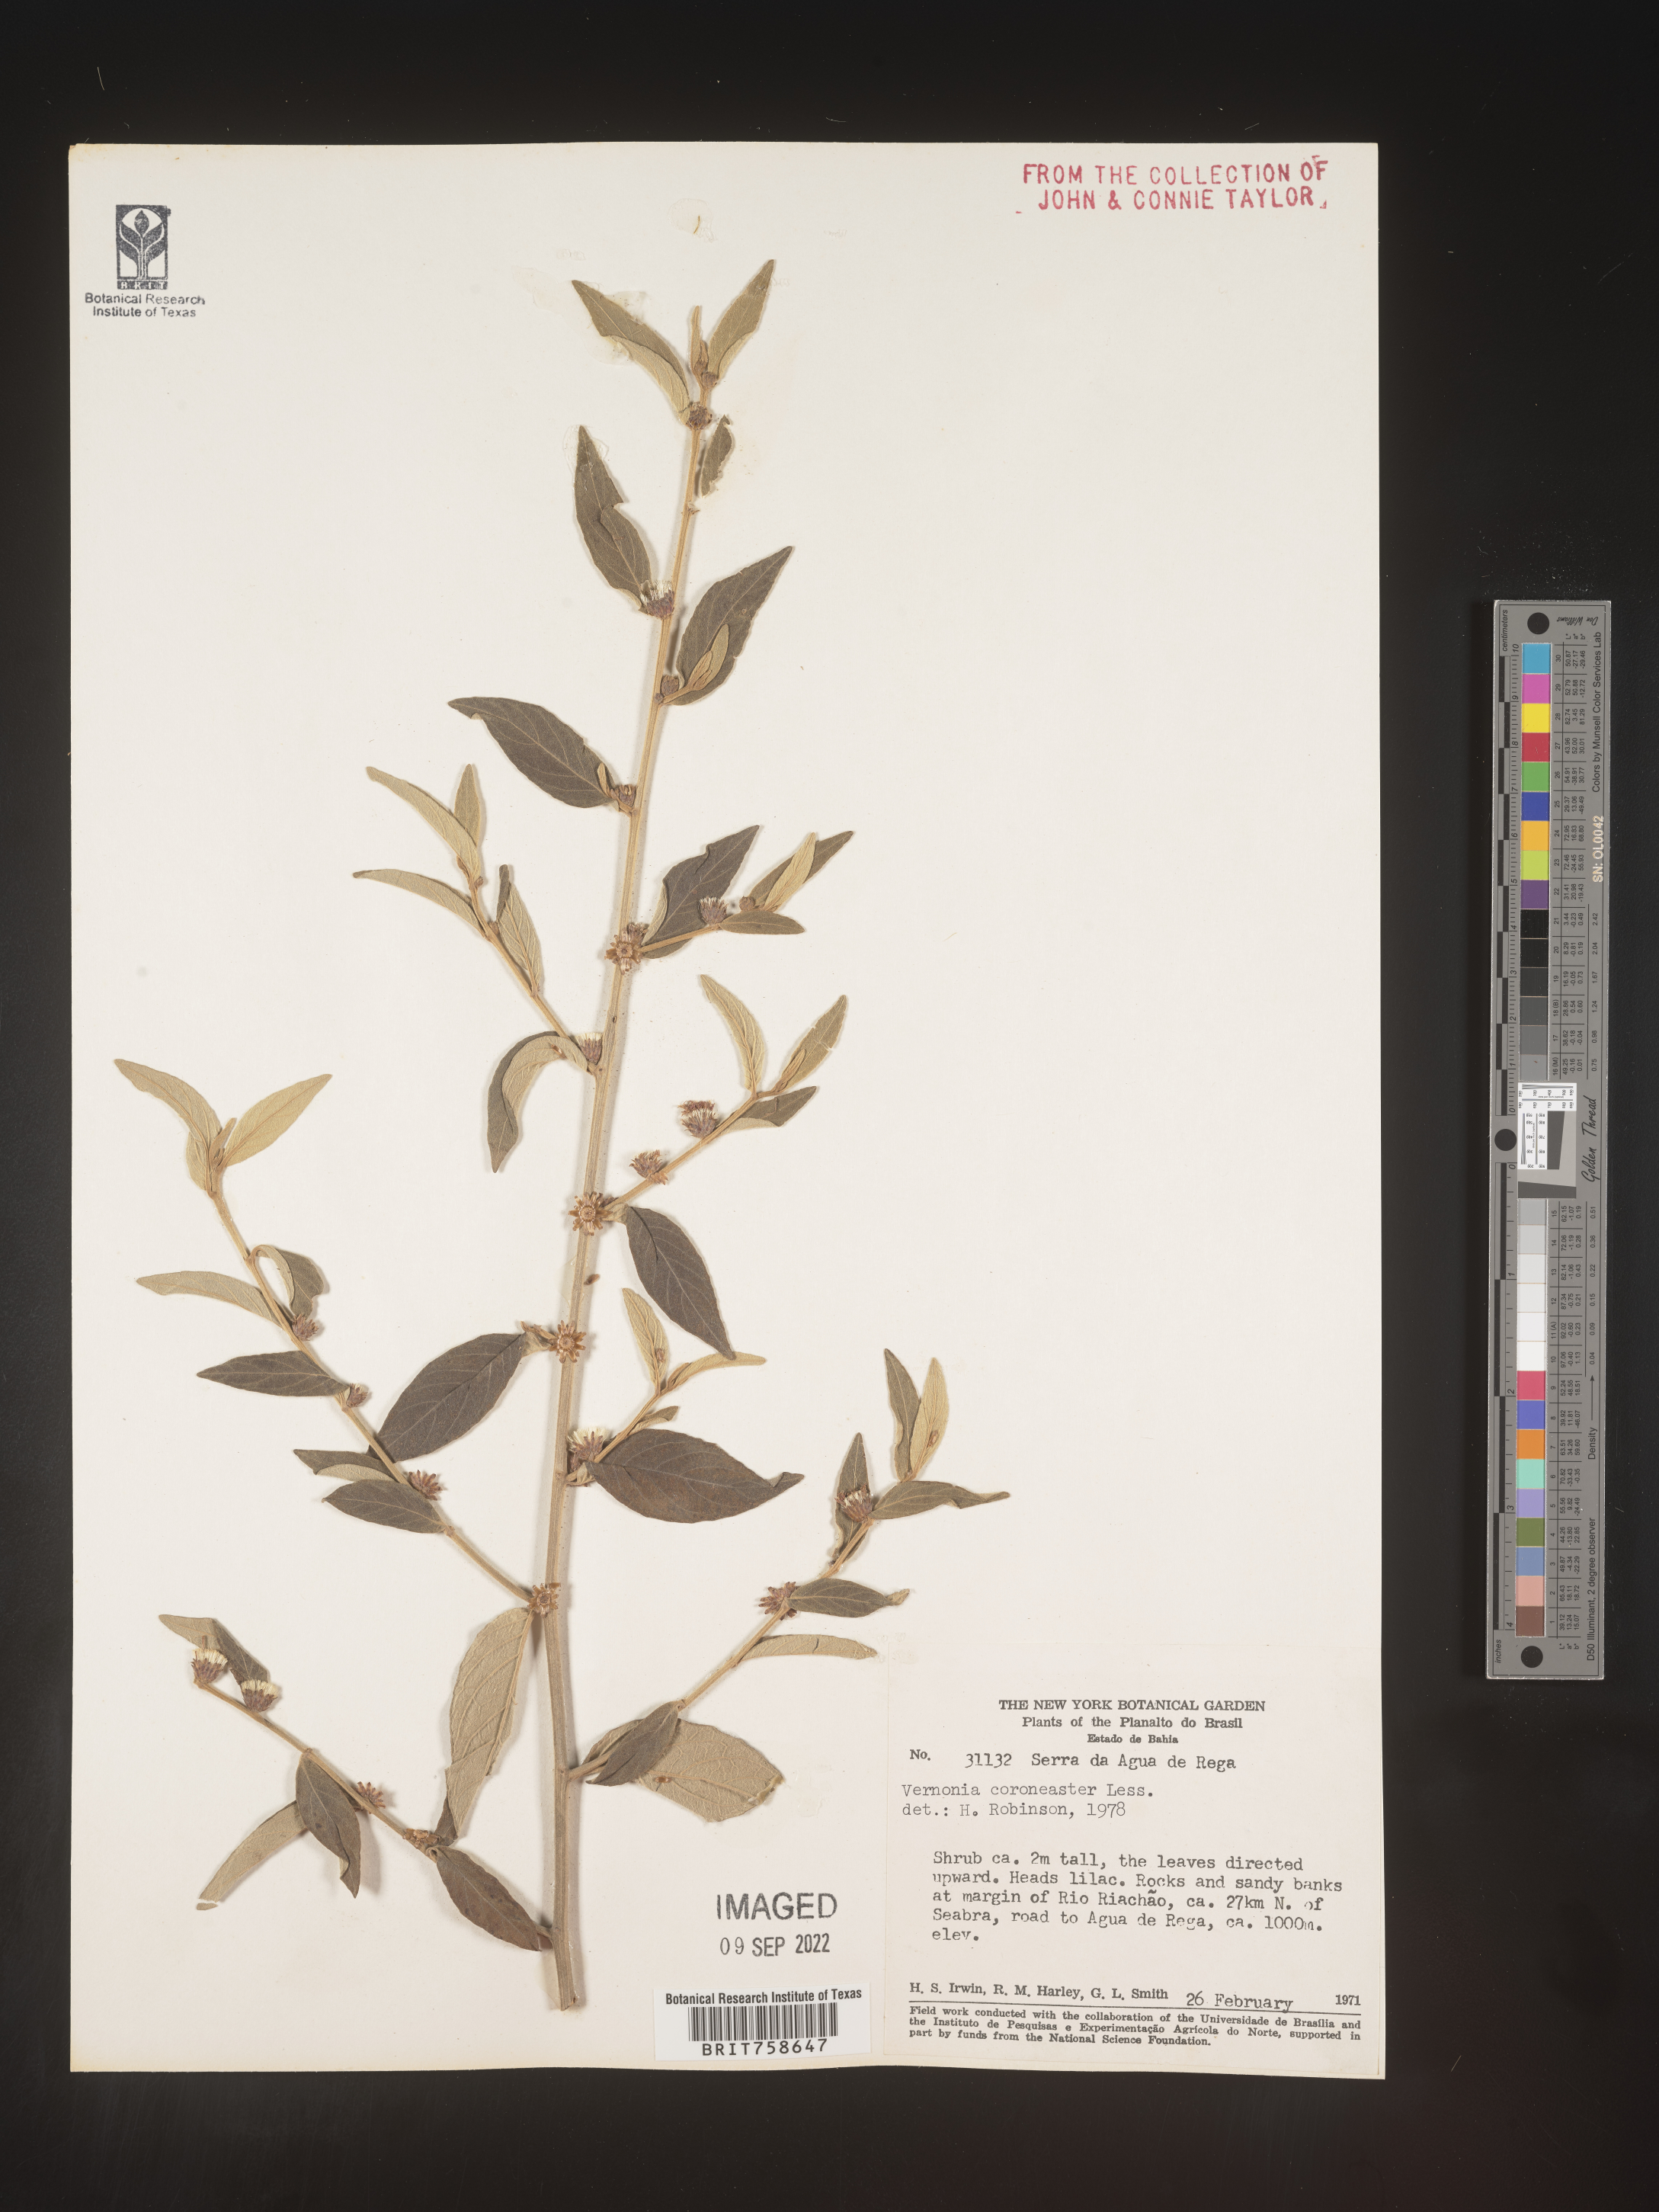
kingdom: Plantae
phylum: Tracheophyta
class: Magnoliopsida
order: Asterales
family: Asteraceae
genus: Vernonia
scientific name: Vernonia
